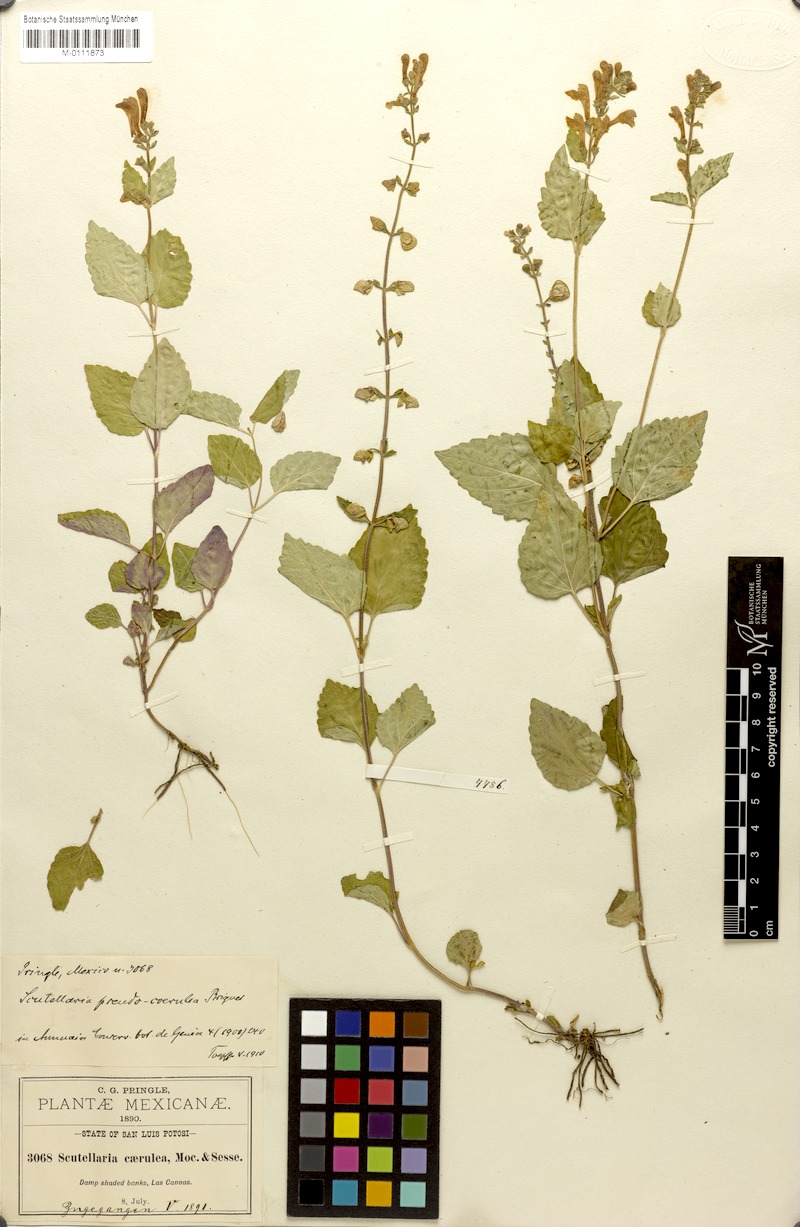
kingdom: Plantae
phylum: Tracheophyta
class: Magnoliopsida
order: Lamiales
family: Lamiaceae
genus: Scutellaria
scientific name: Scutellaria pseudocoerulea
